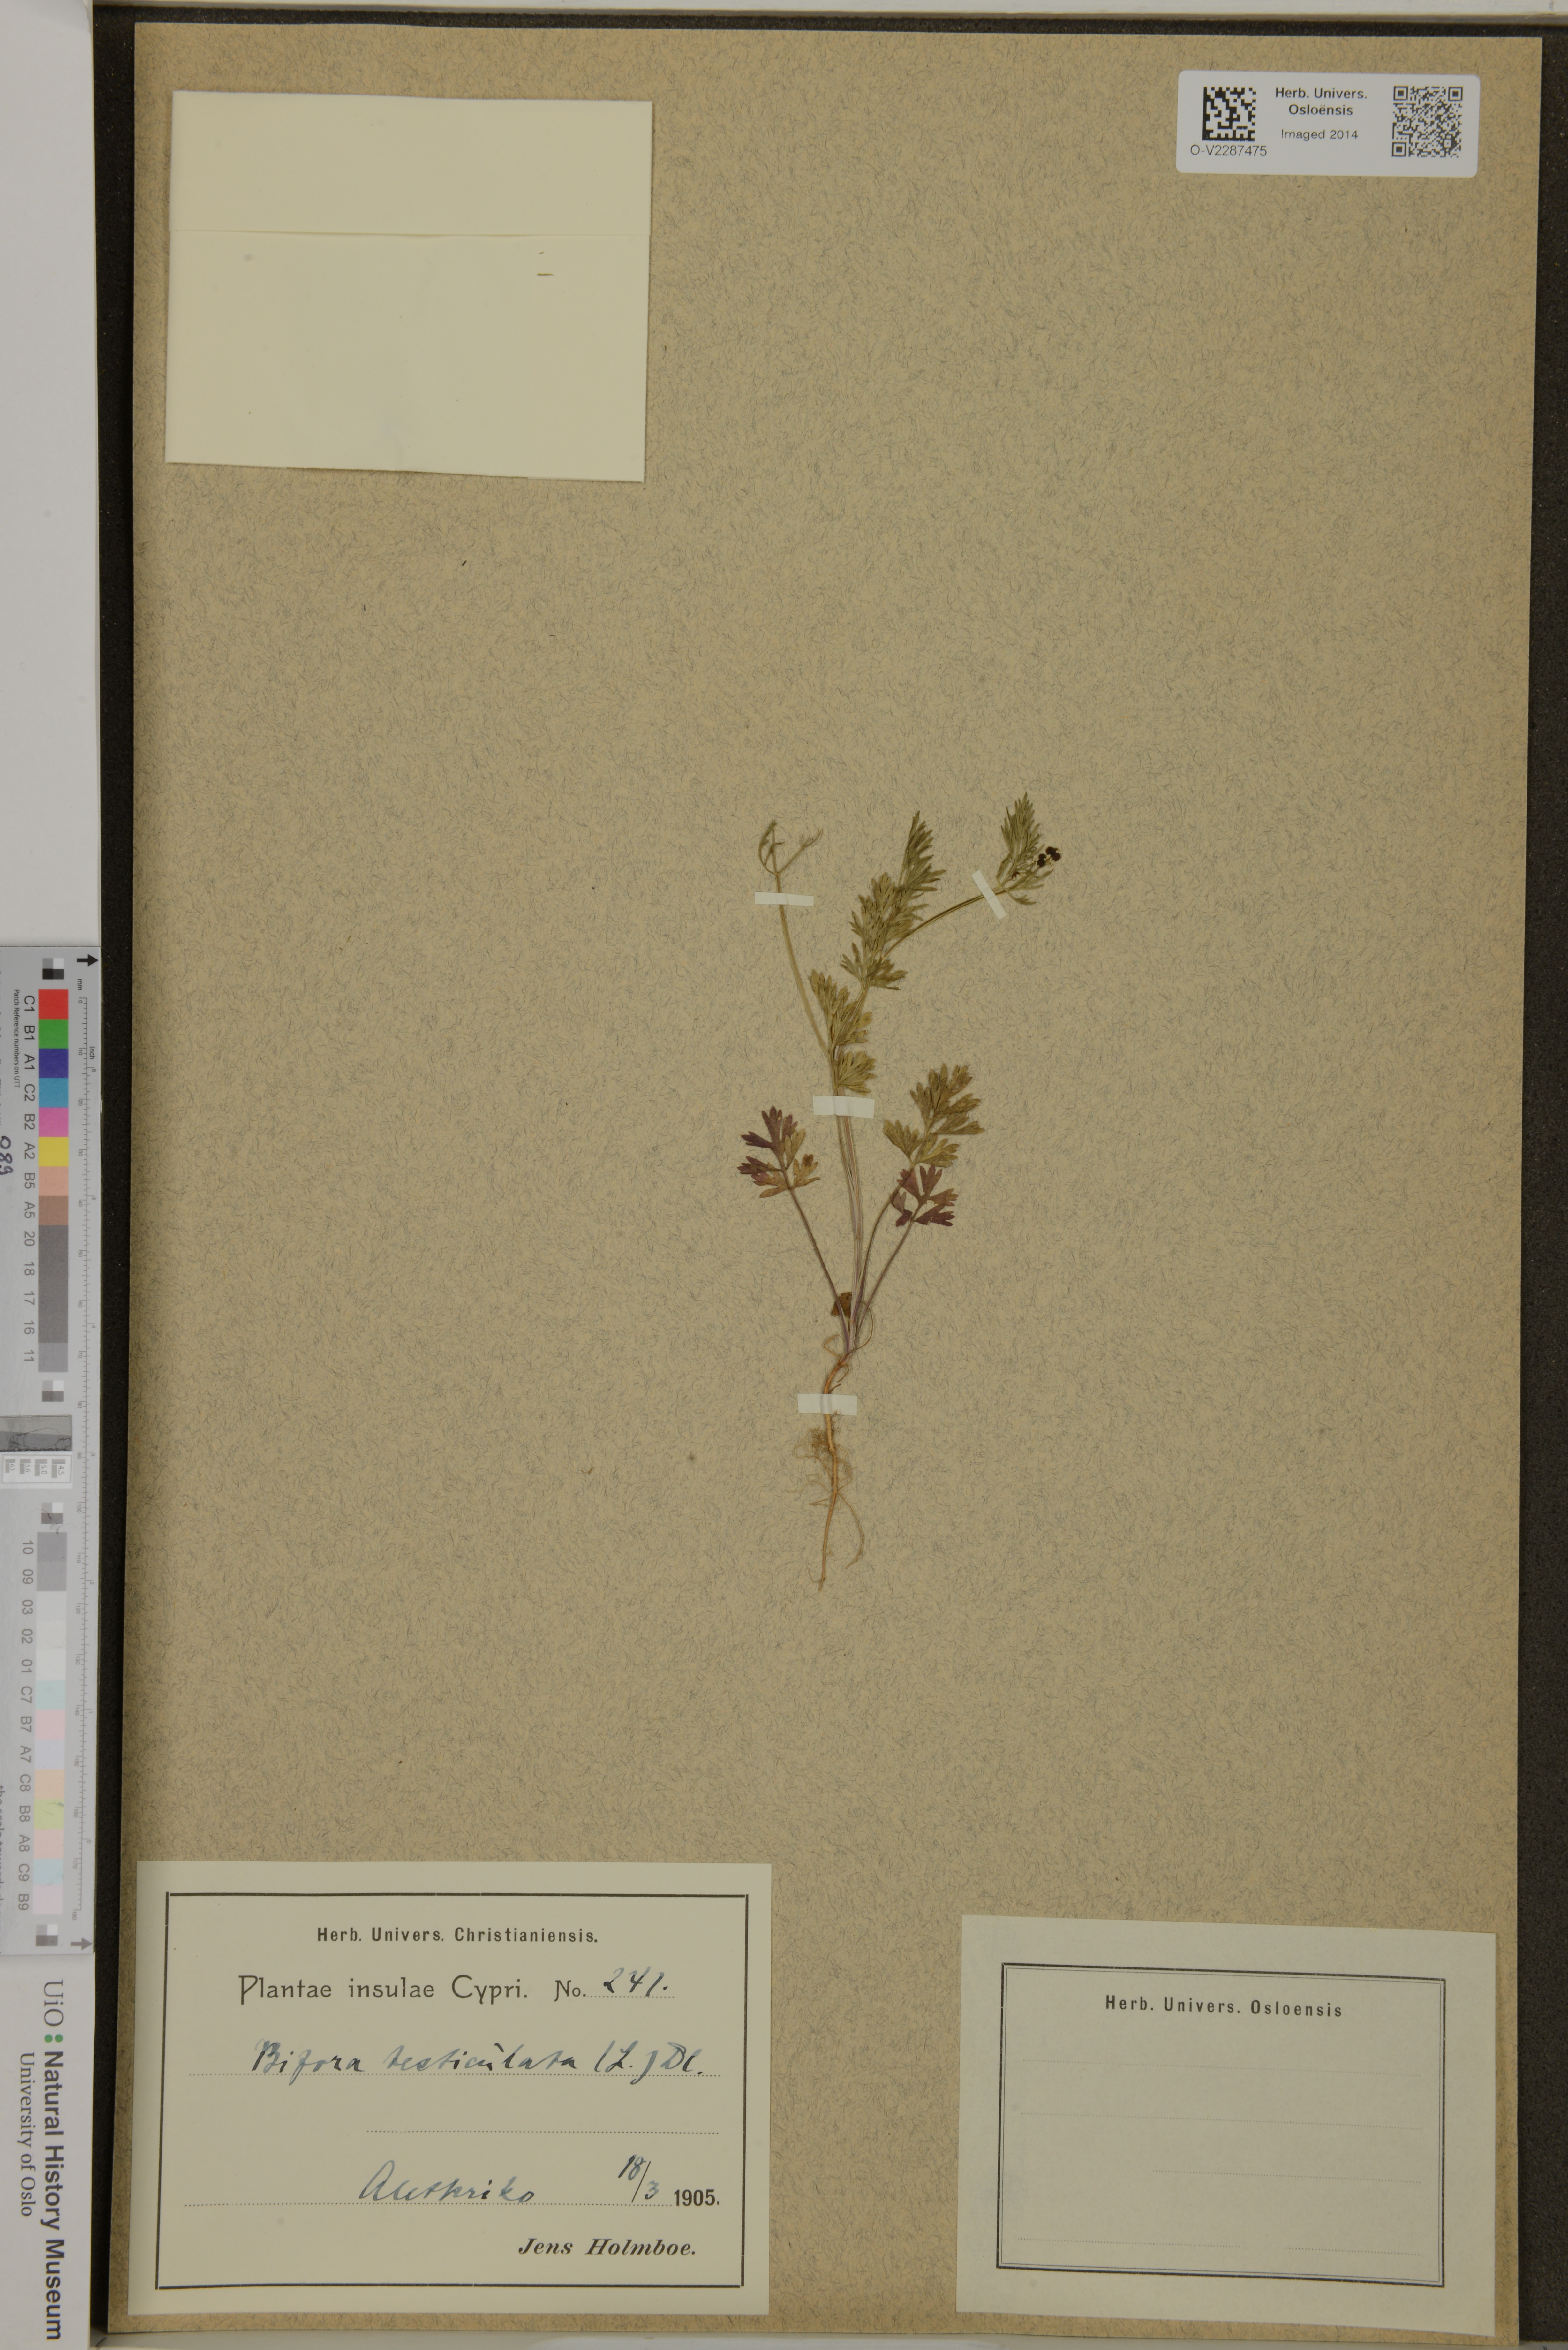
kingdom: Plantae
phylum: Tracheophyta
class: Magnoliopsida
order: Apiales
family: Apiaceae
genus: Bifora
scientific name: Bifora testiculata
